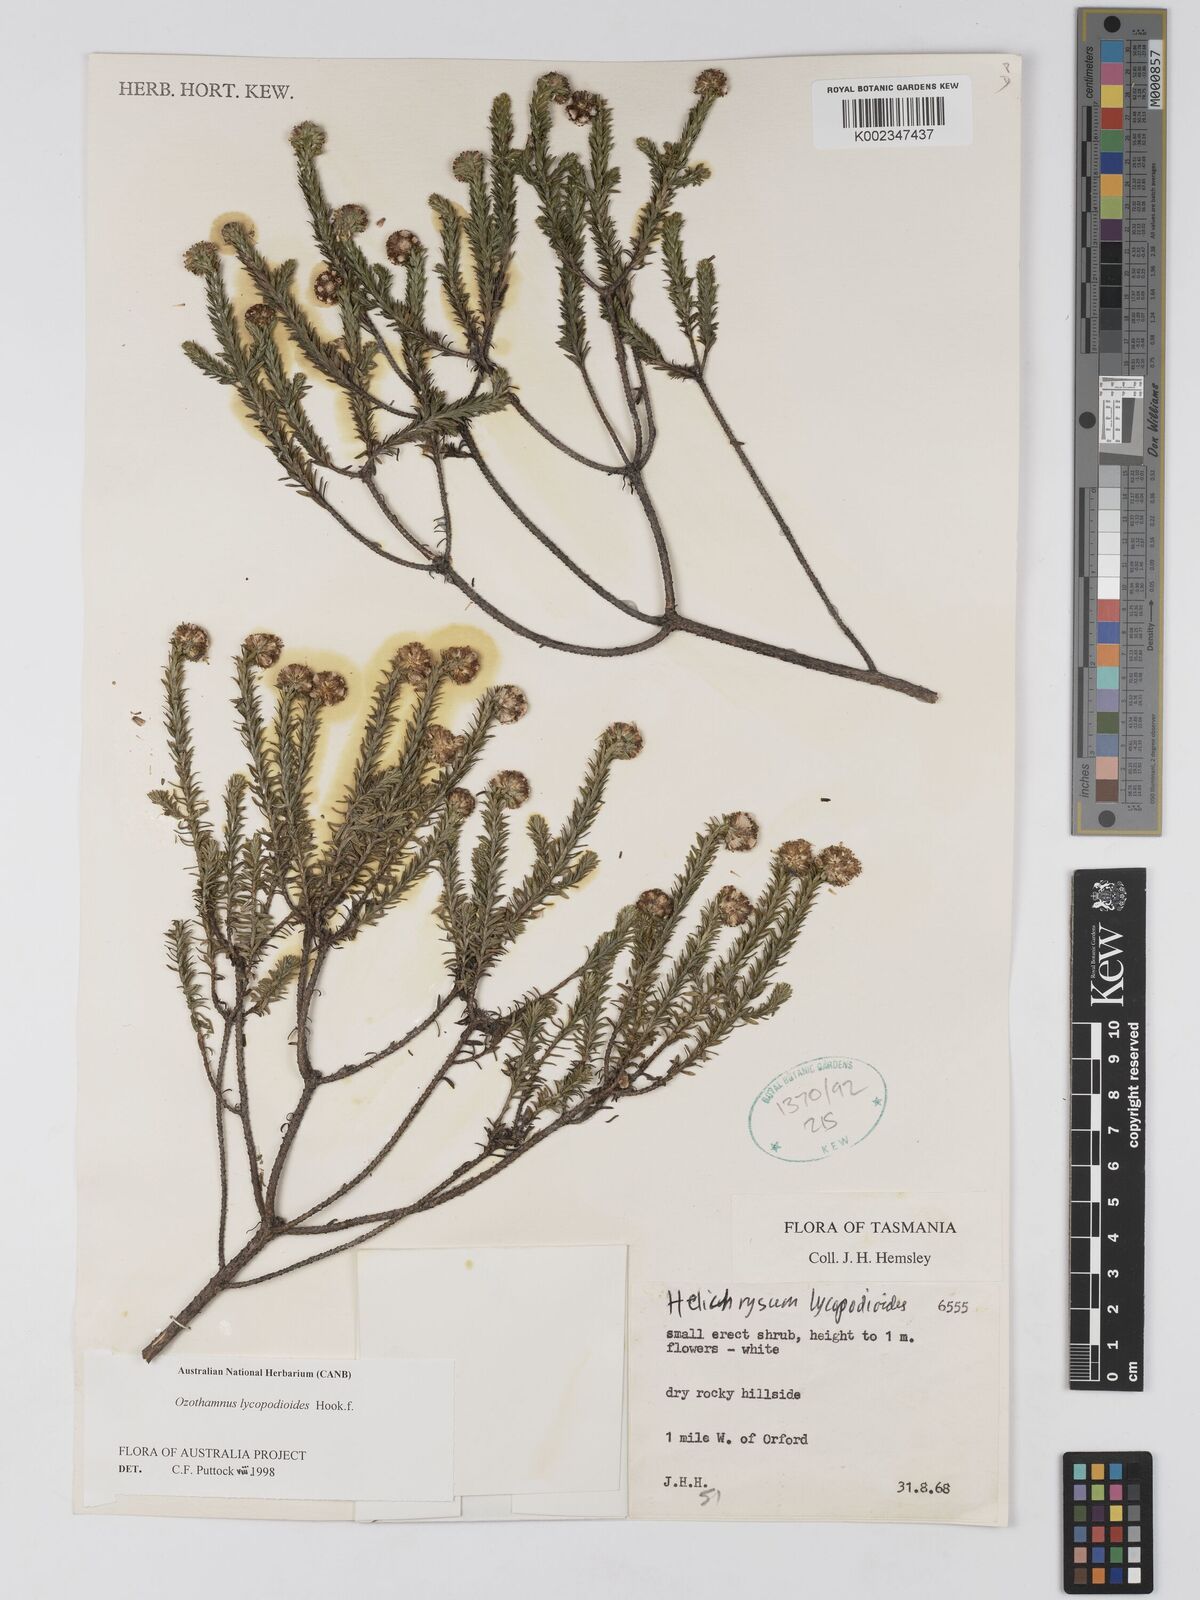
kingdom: Plantae
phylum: Tracheophyta
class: Magnoliopsida
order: Asterales
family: Asteraceae
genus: Ozothamnus
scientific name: Ozothamnus lycopodioides
